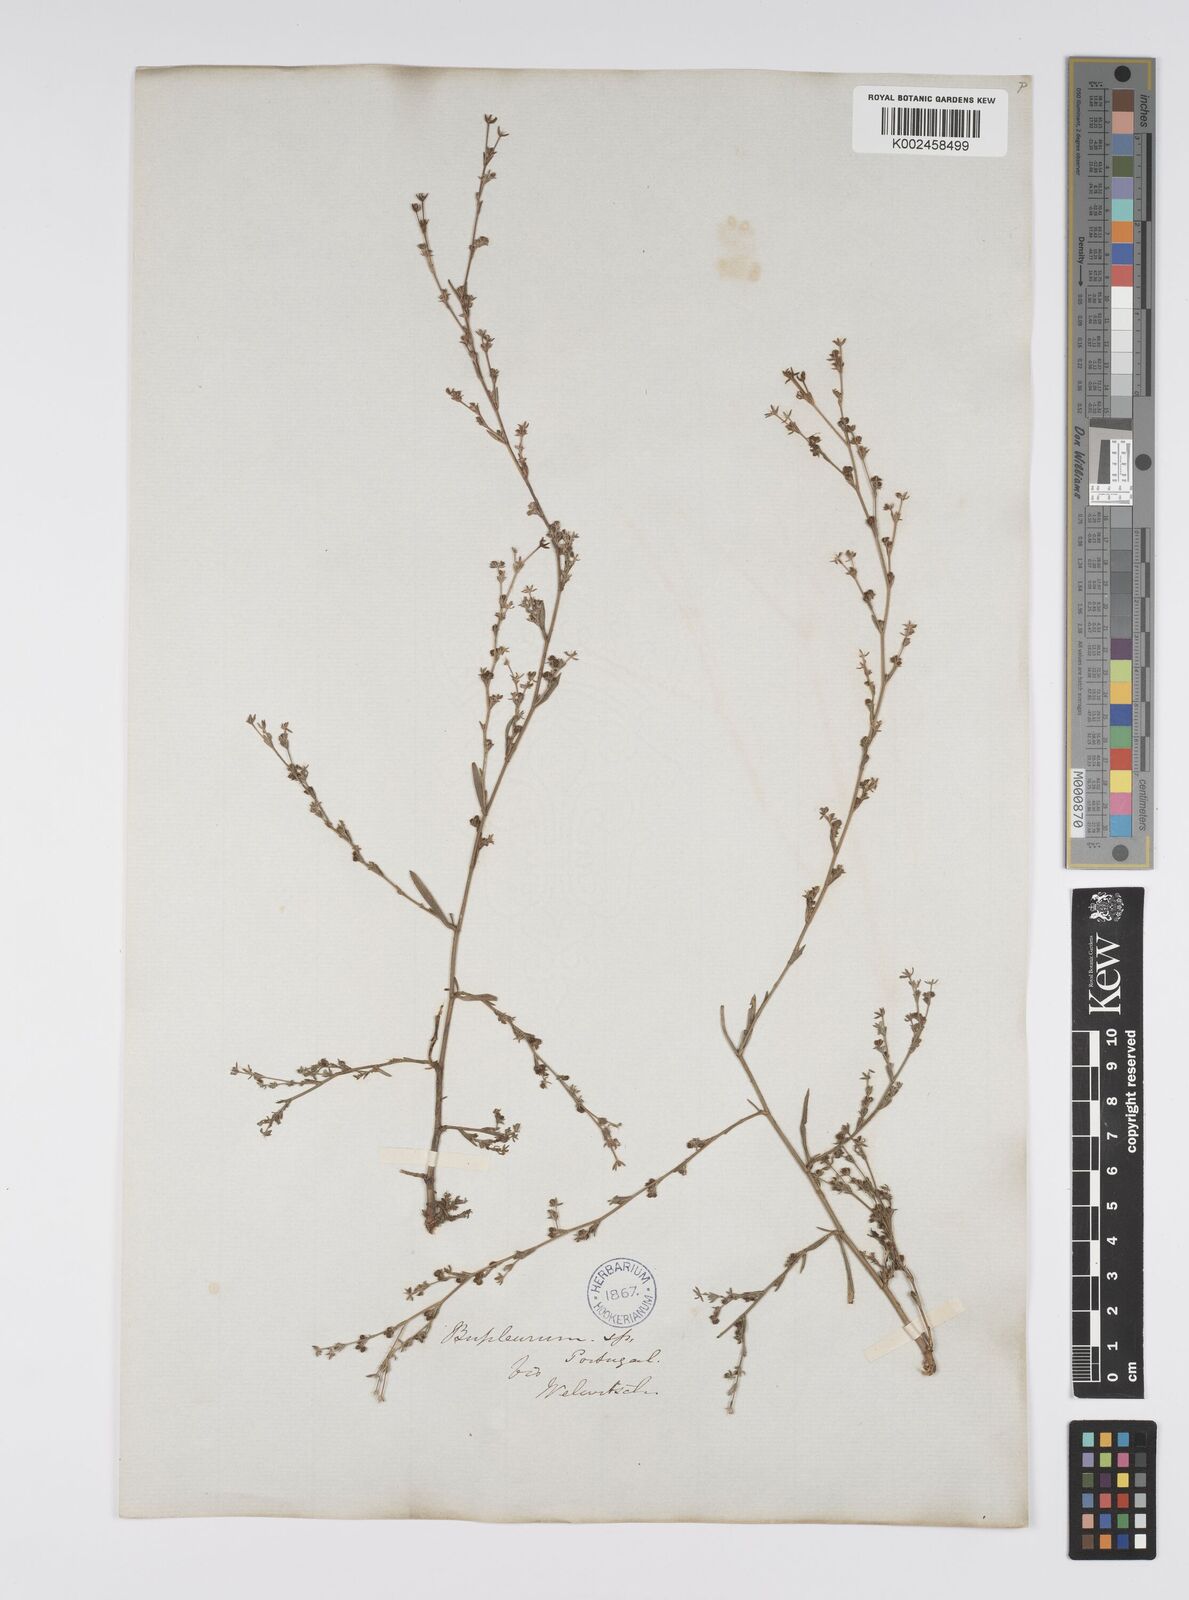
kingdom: Plantae
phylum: Tracheophyta
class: Magnoliopsida
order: Apiales
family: Apiaceae
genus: Bupleurum
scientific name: Bupleurum tenuissimum
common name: Slender hare's-ear
